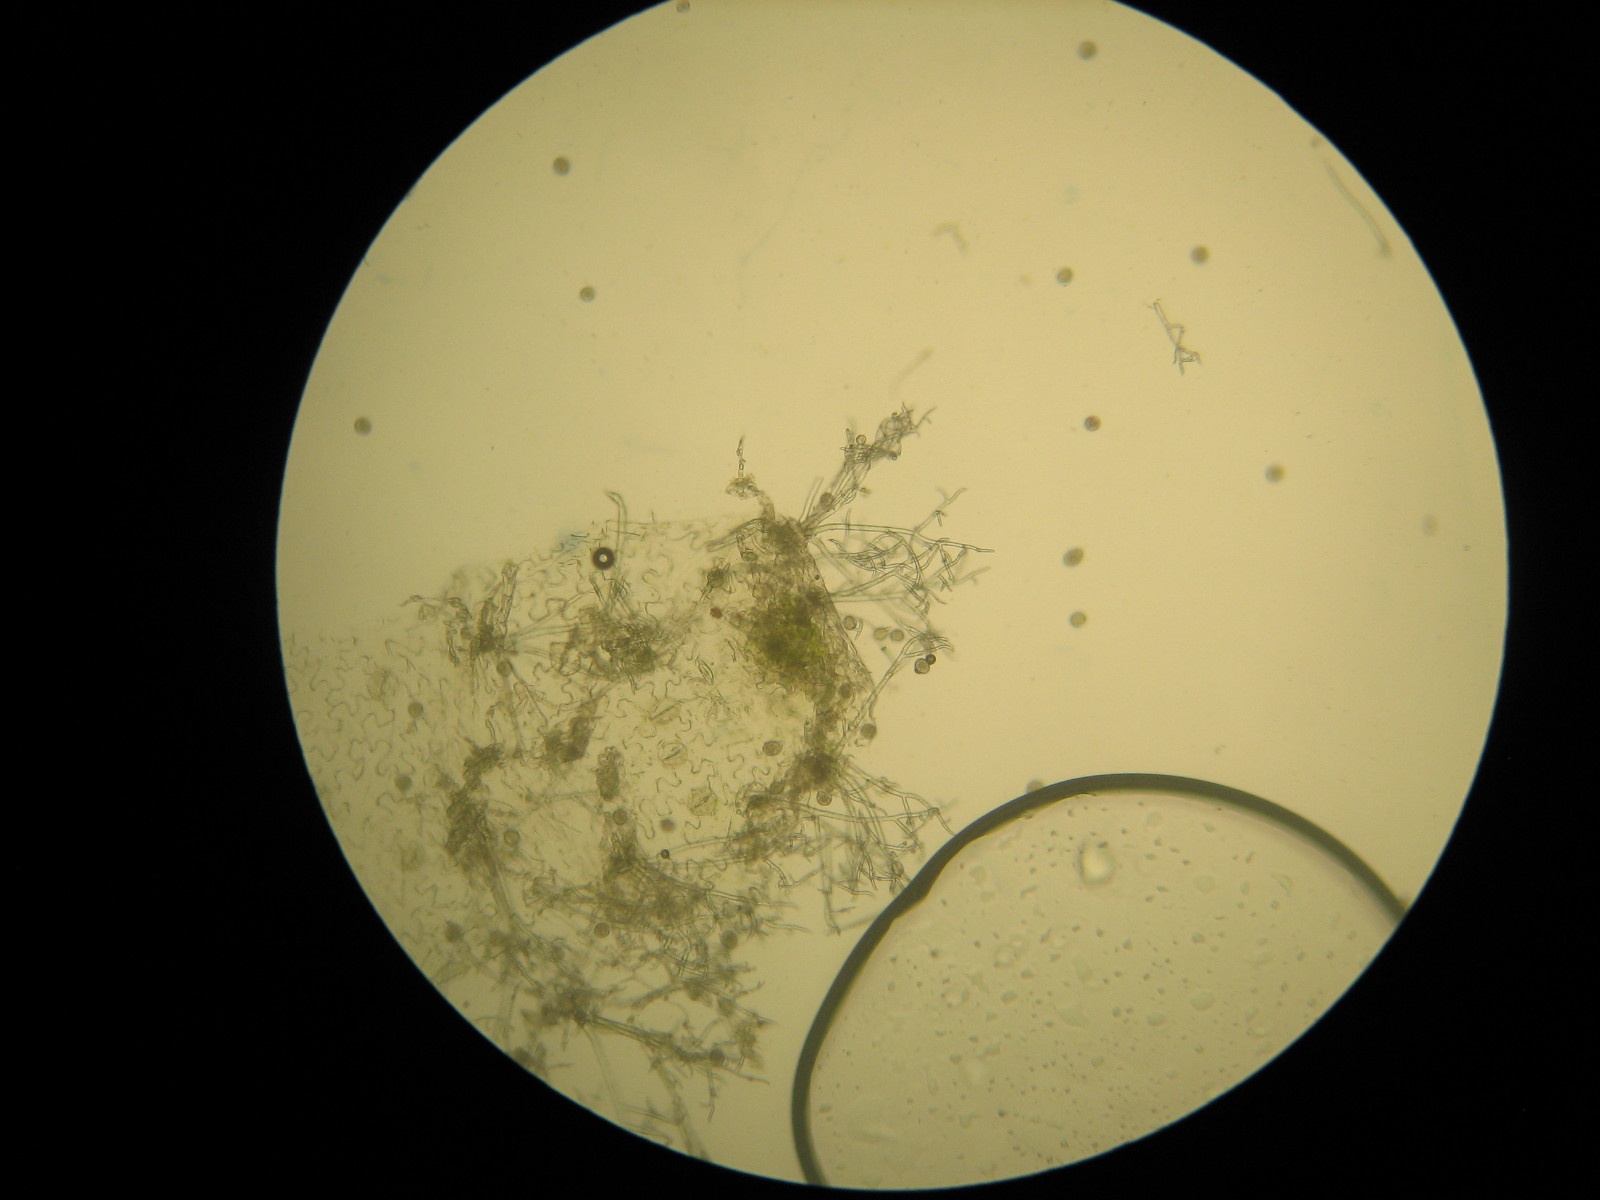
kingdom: Chromista
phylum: Oomycota
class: Peronosporea
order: Peronosporales
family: Peronosporaceae
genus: Peronospora
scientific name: Peronospora ficariae
